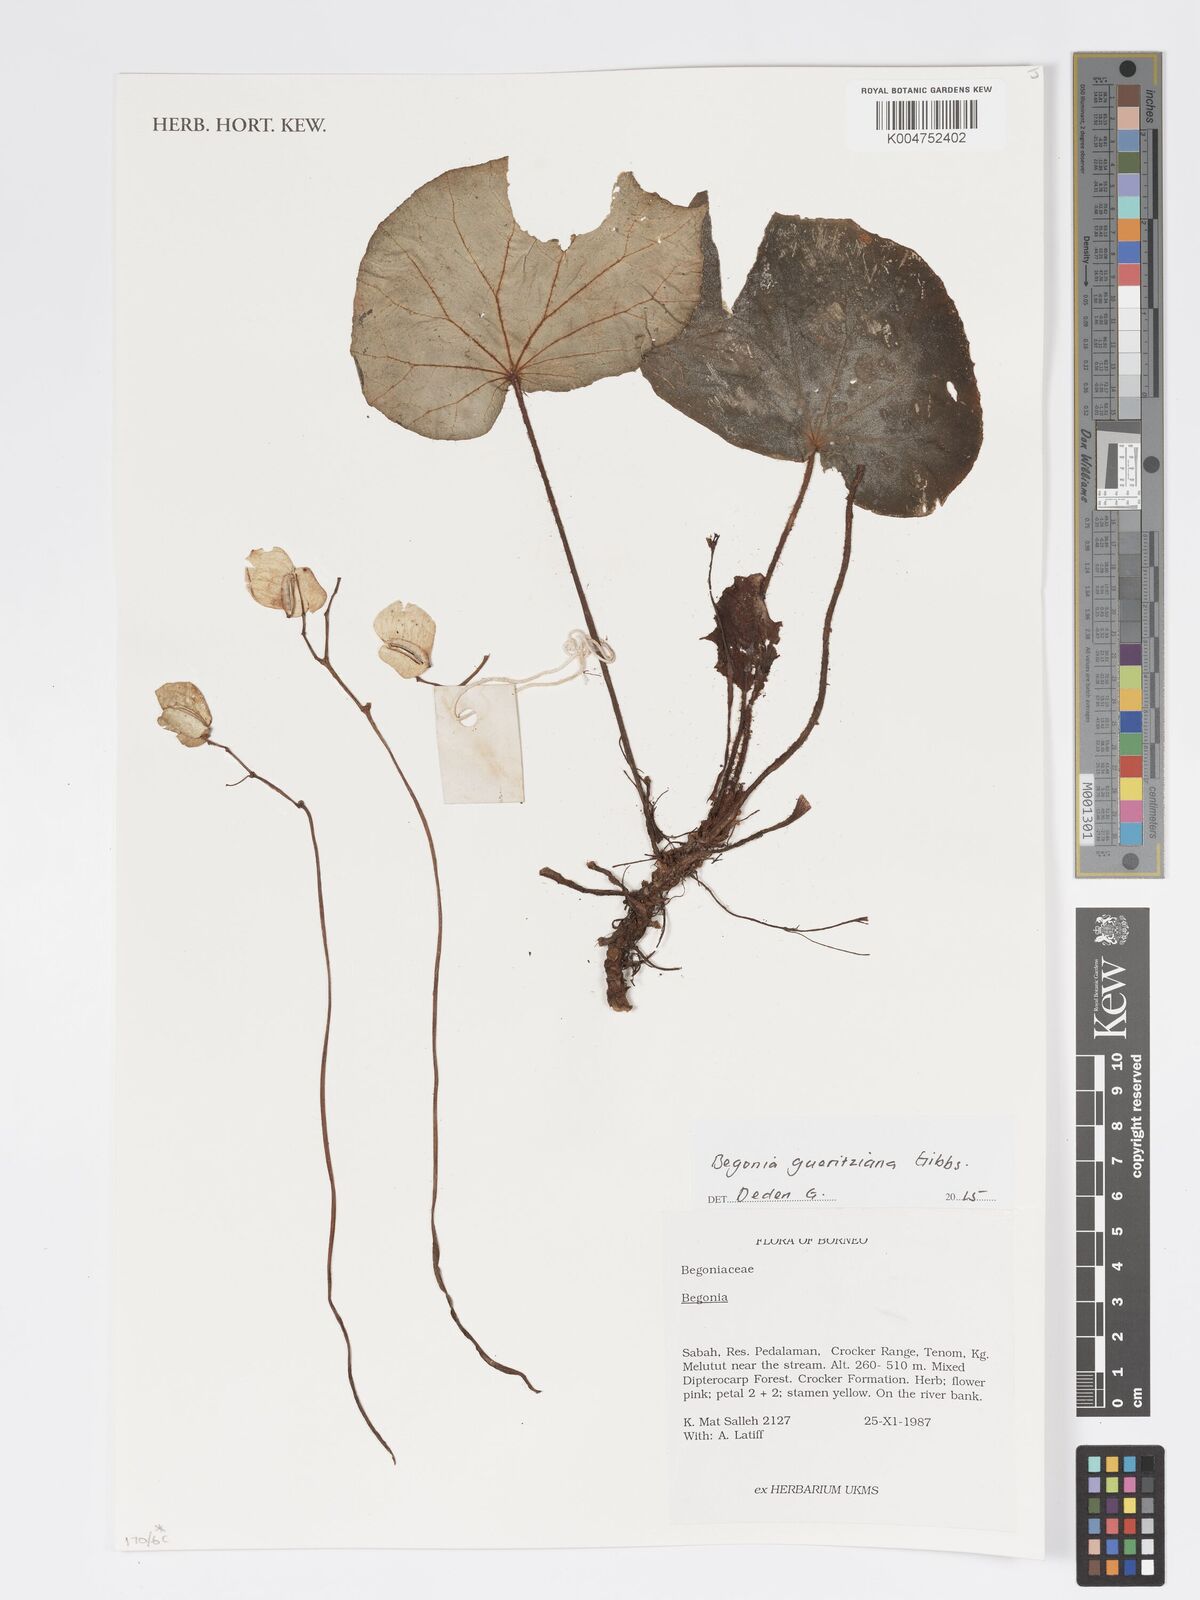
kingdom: Plantae
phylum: Tracheophyta
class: Magnoliopsida
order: Cucurbitales
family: Begoniaceae
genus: Begonia
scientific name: Begonia gueritziana
